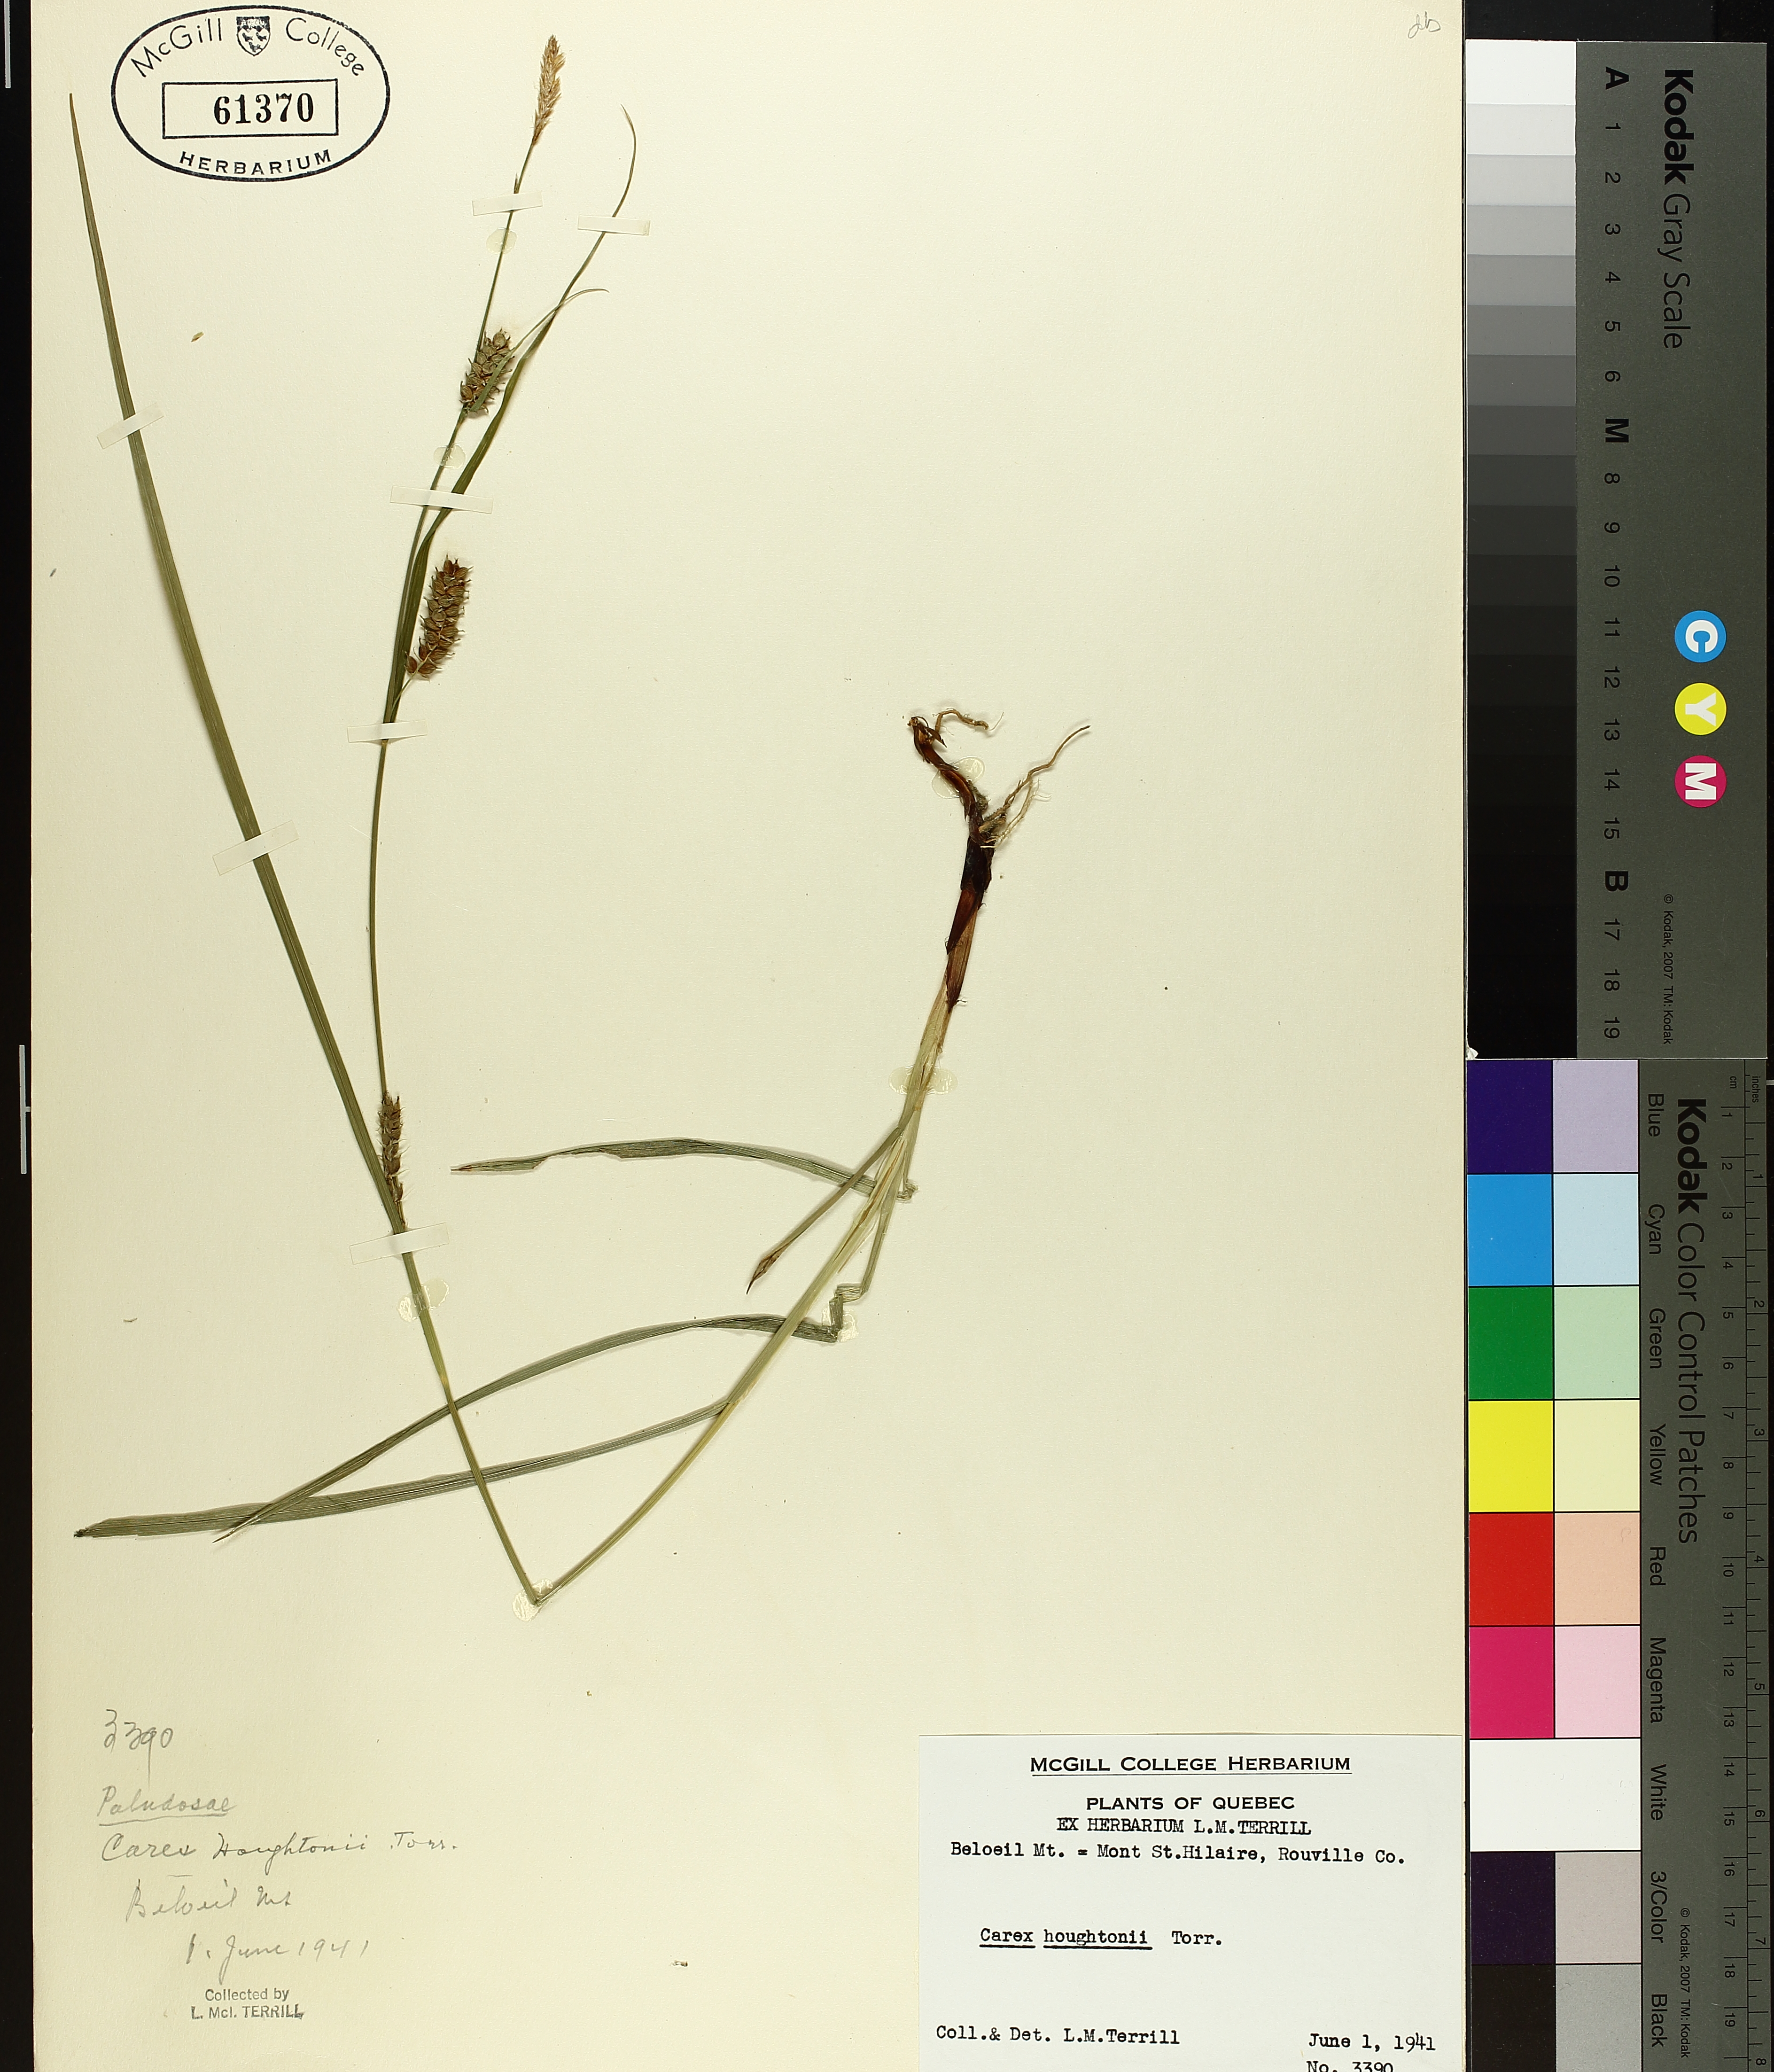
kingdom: Plantae
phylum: Tracheophyta
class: Liliopsida
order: Poales
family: Cyperaceae
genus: Carex
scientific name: Carex houghtoniana
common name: Houghton's sedge
